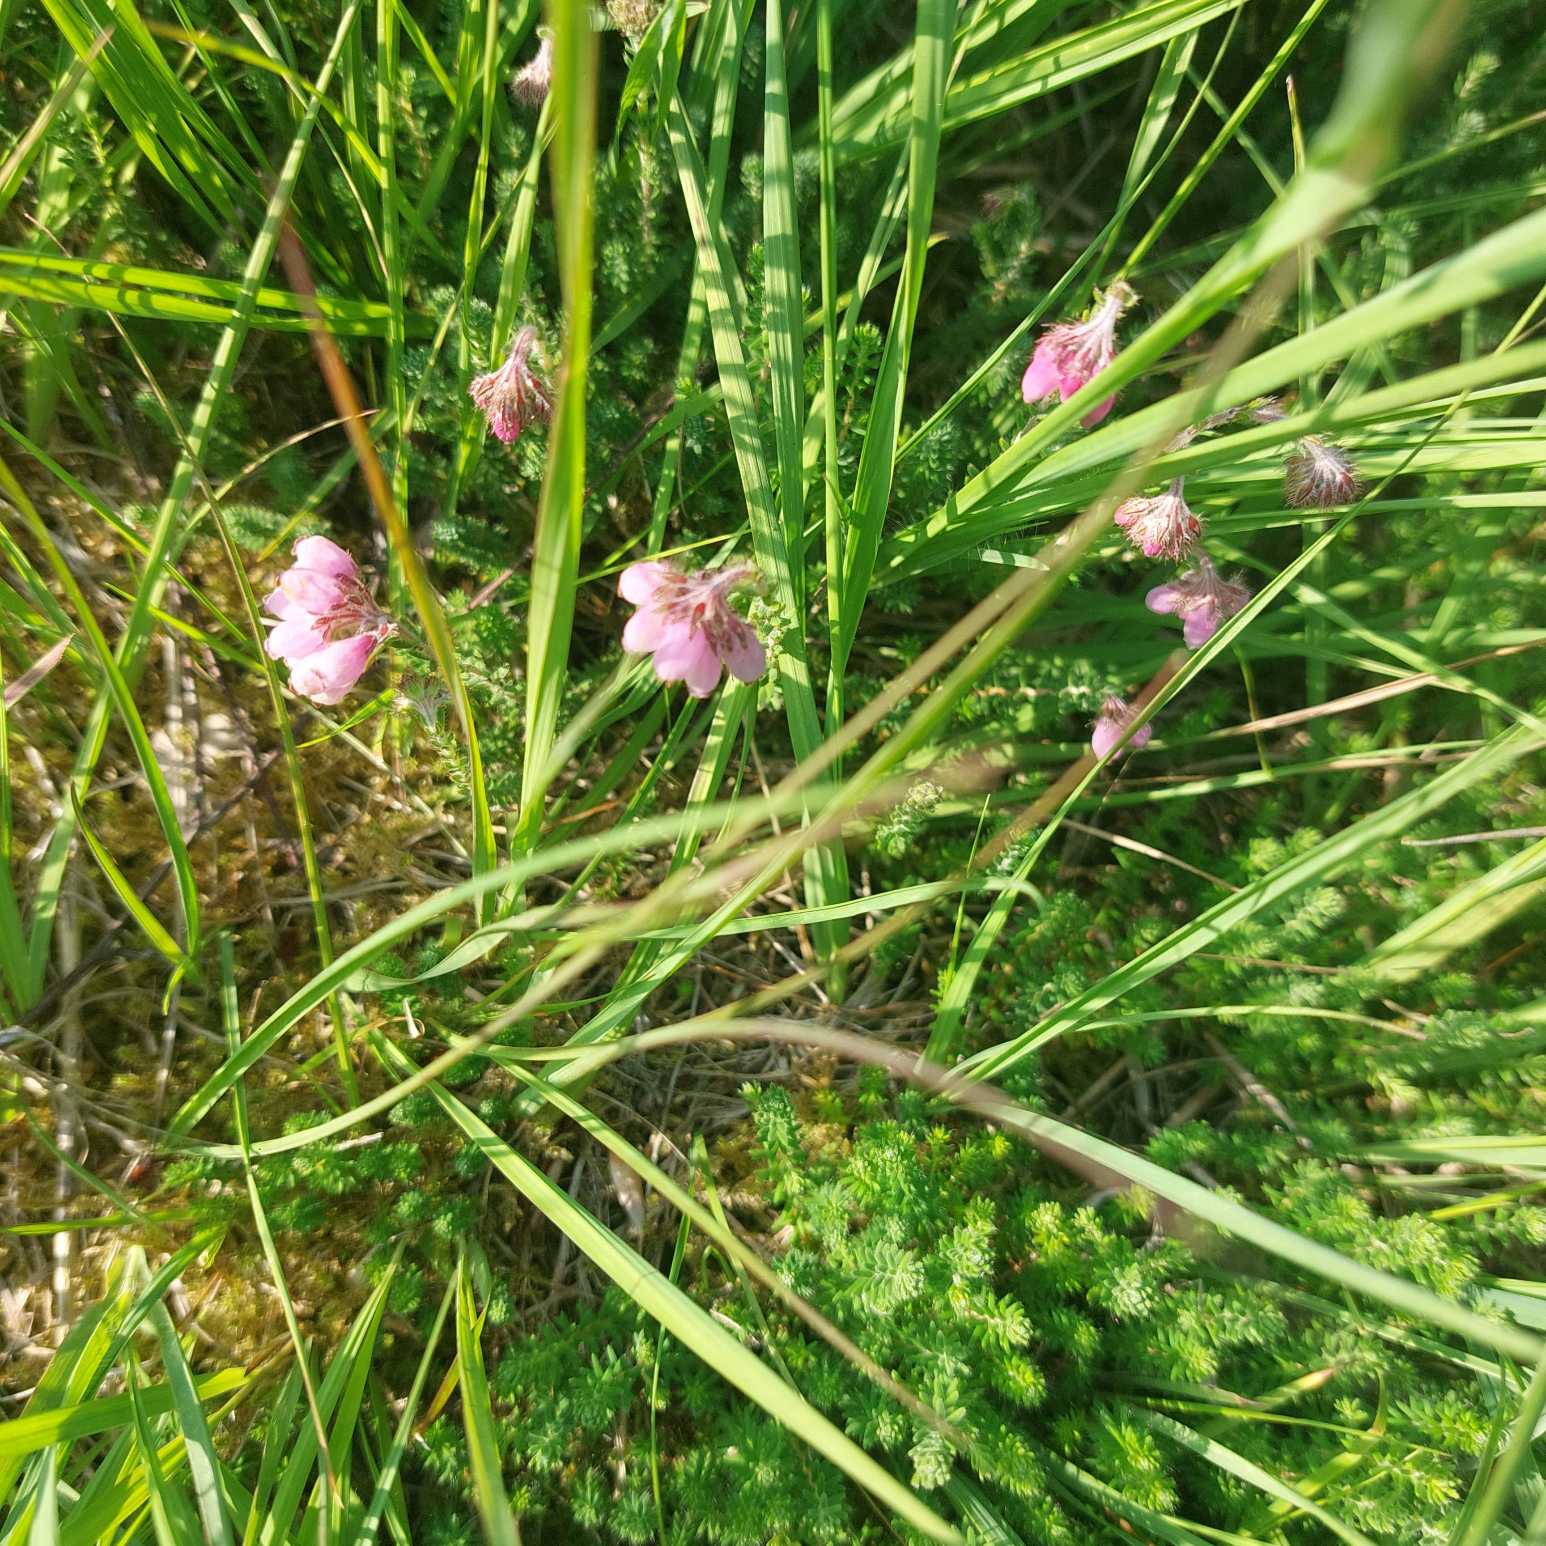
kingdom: Plantae
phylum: Tracheophyta
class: Magnoliopsida
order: Ericales
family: Ericaceae
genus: Erica
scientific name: Erica tetralix
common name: Klokkelyng
